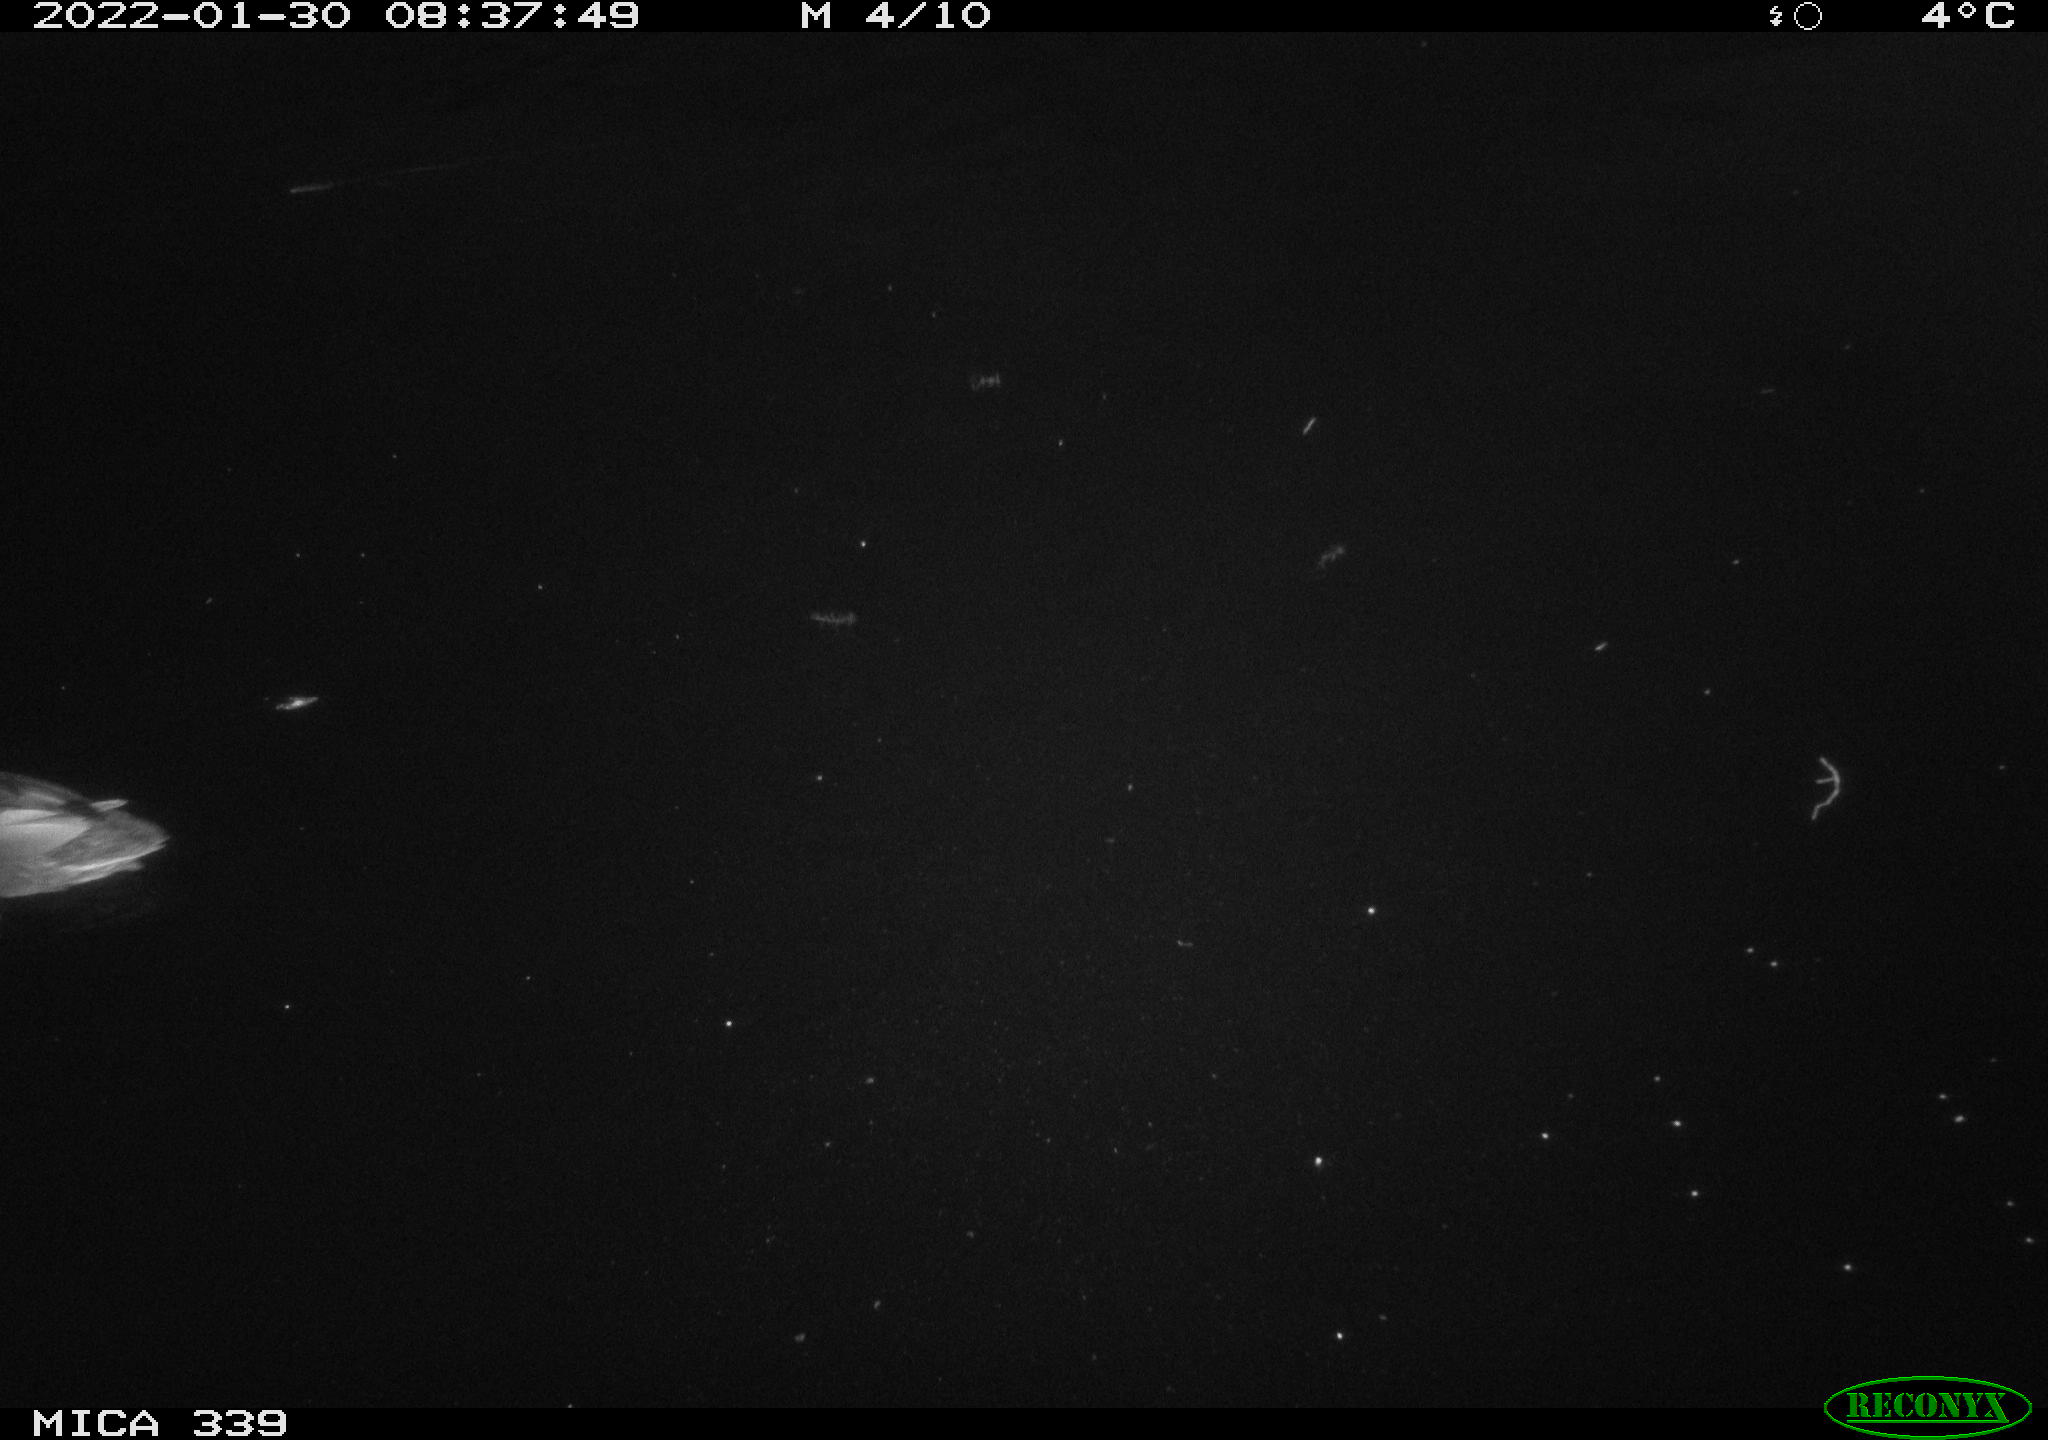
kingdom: Animalia
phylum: Chordata
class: Aves
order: Anseriformes
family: Anatidae
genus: Anas
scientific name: Anas platyrhynchos
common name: Mallard
